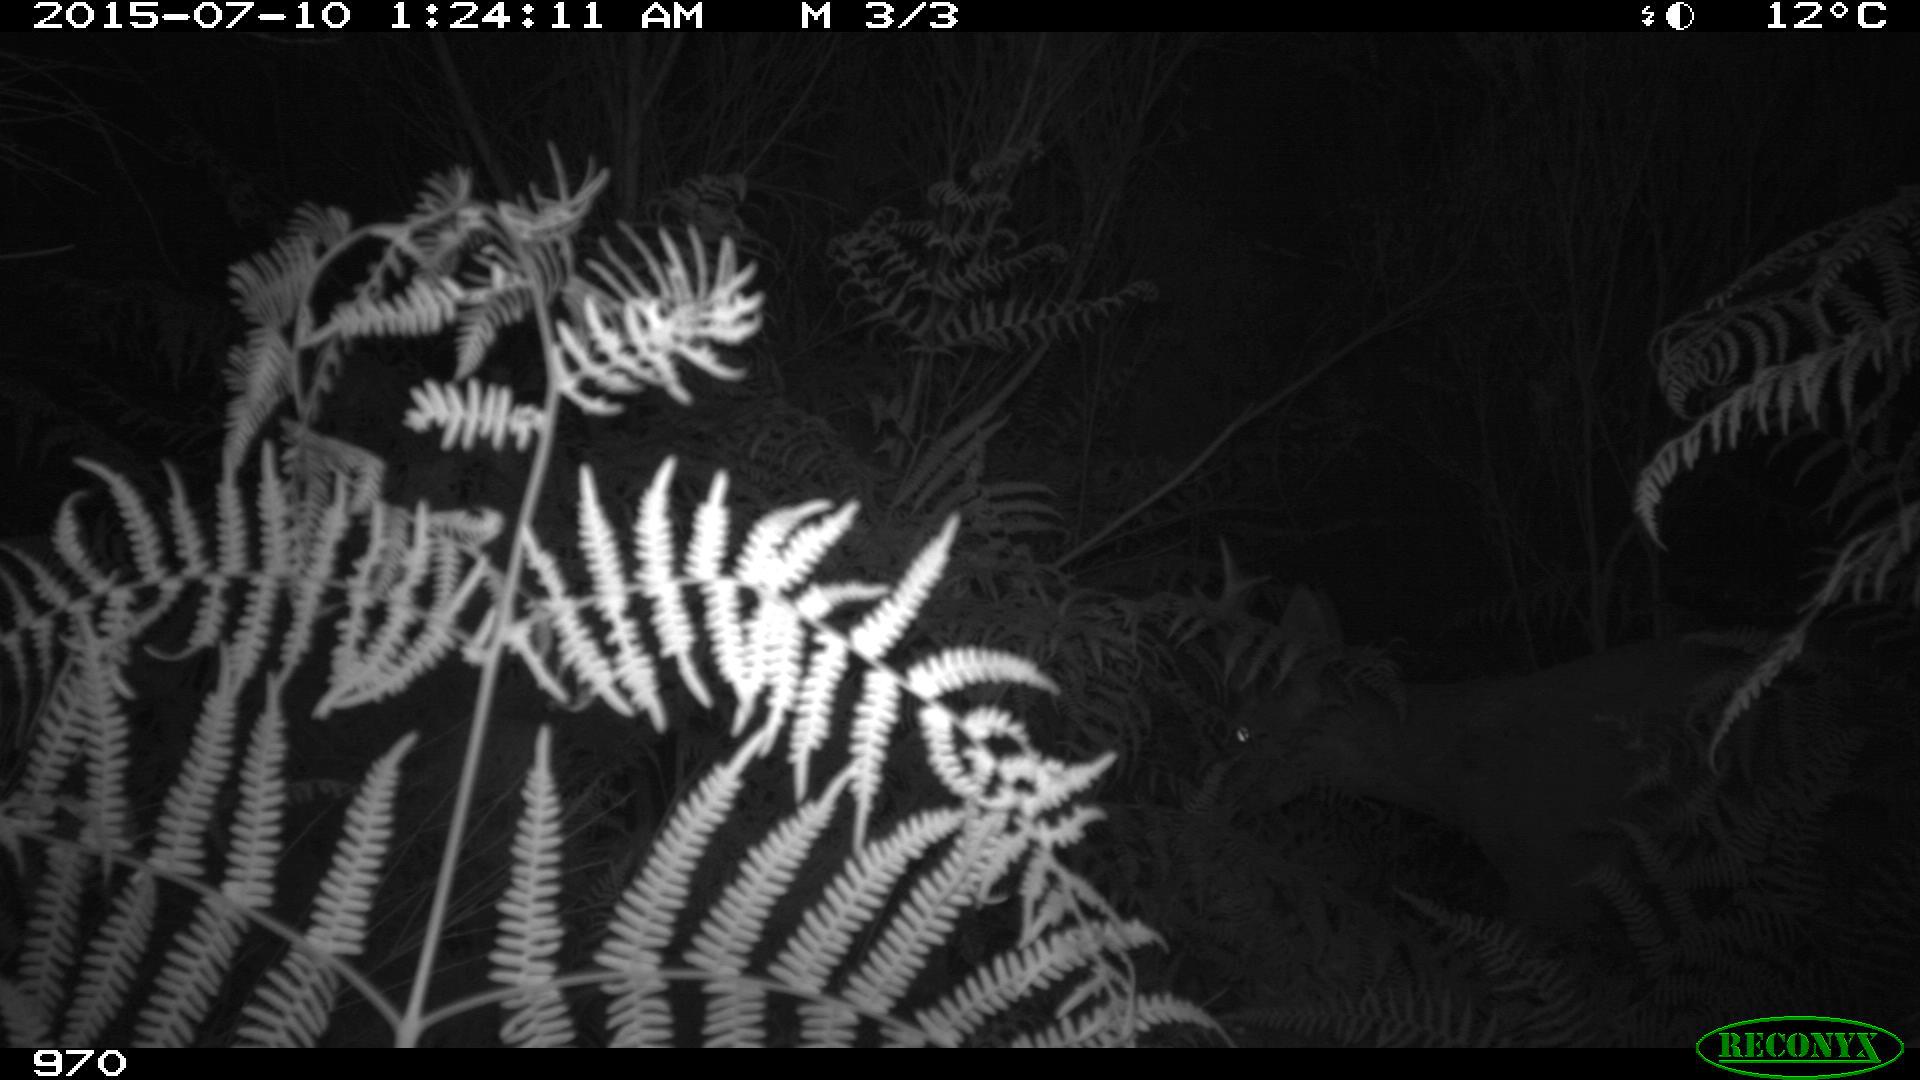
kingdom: Animalia
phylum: Chordata
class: Mammalia
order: Artiodactyla
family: Cervidae
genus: Capreolus
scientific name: Capreolus capreolus
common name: Western roe deer
